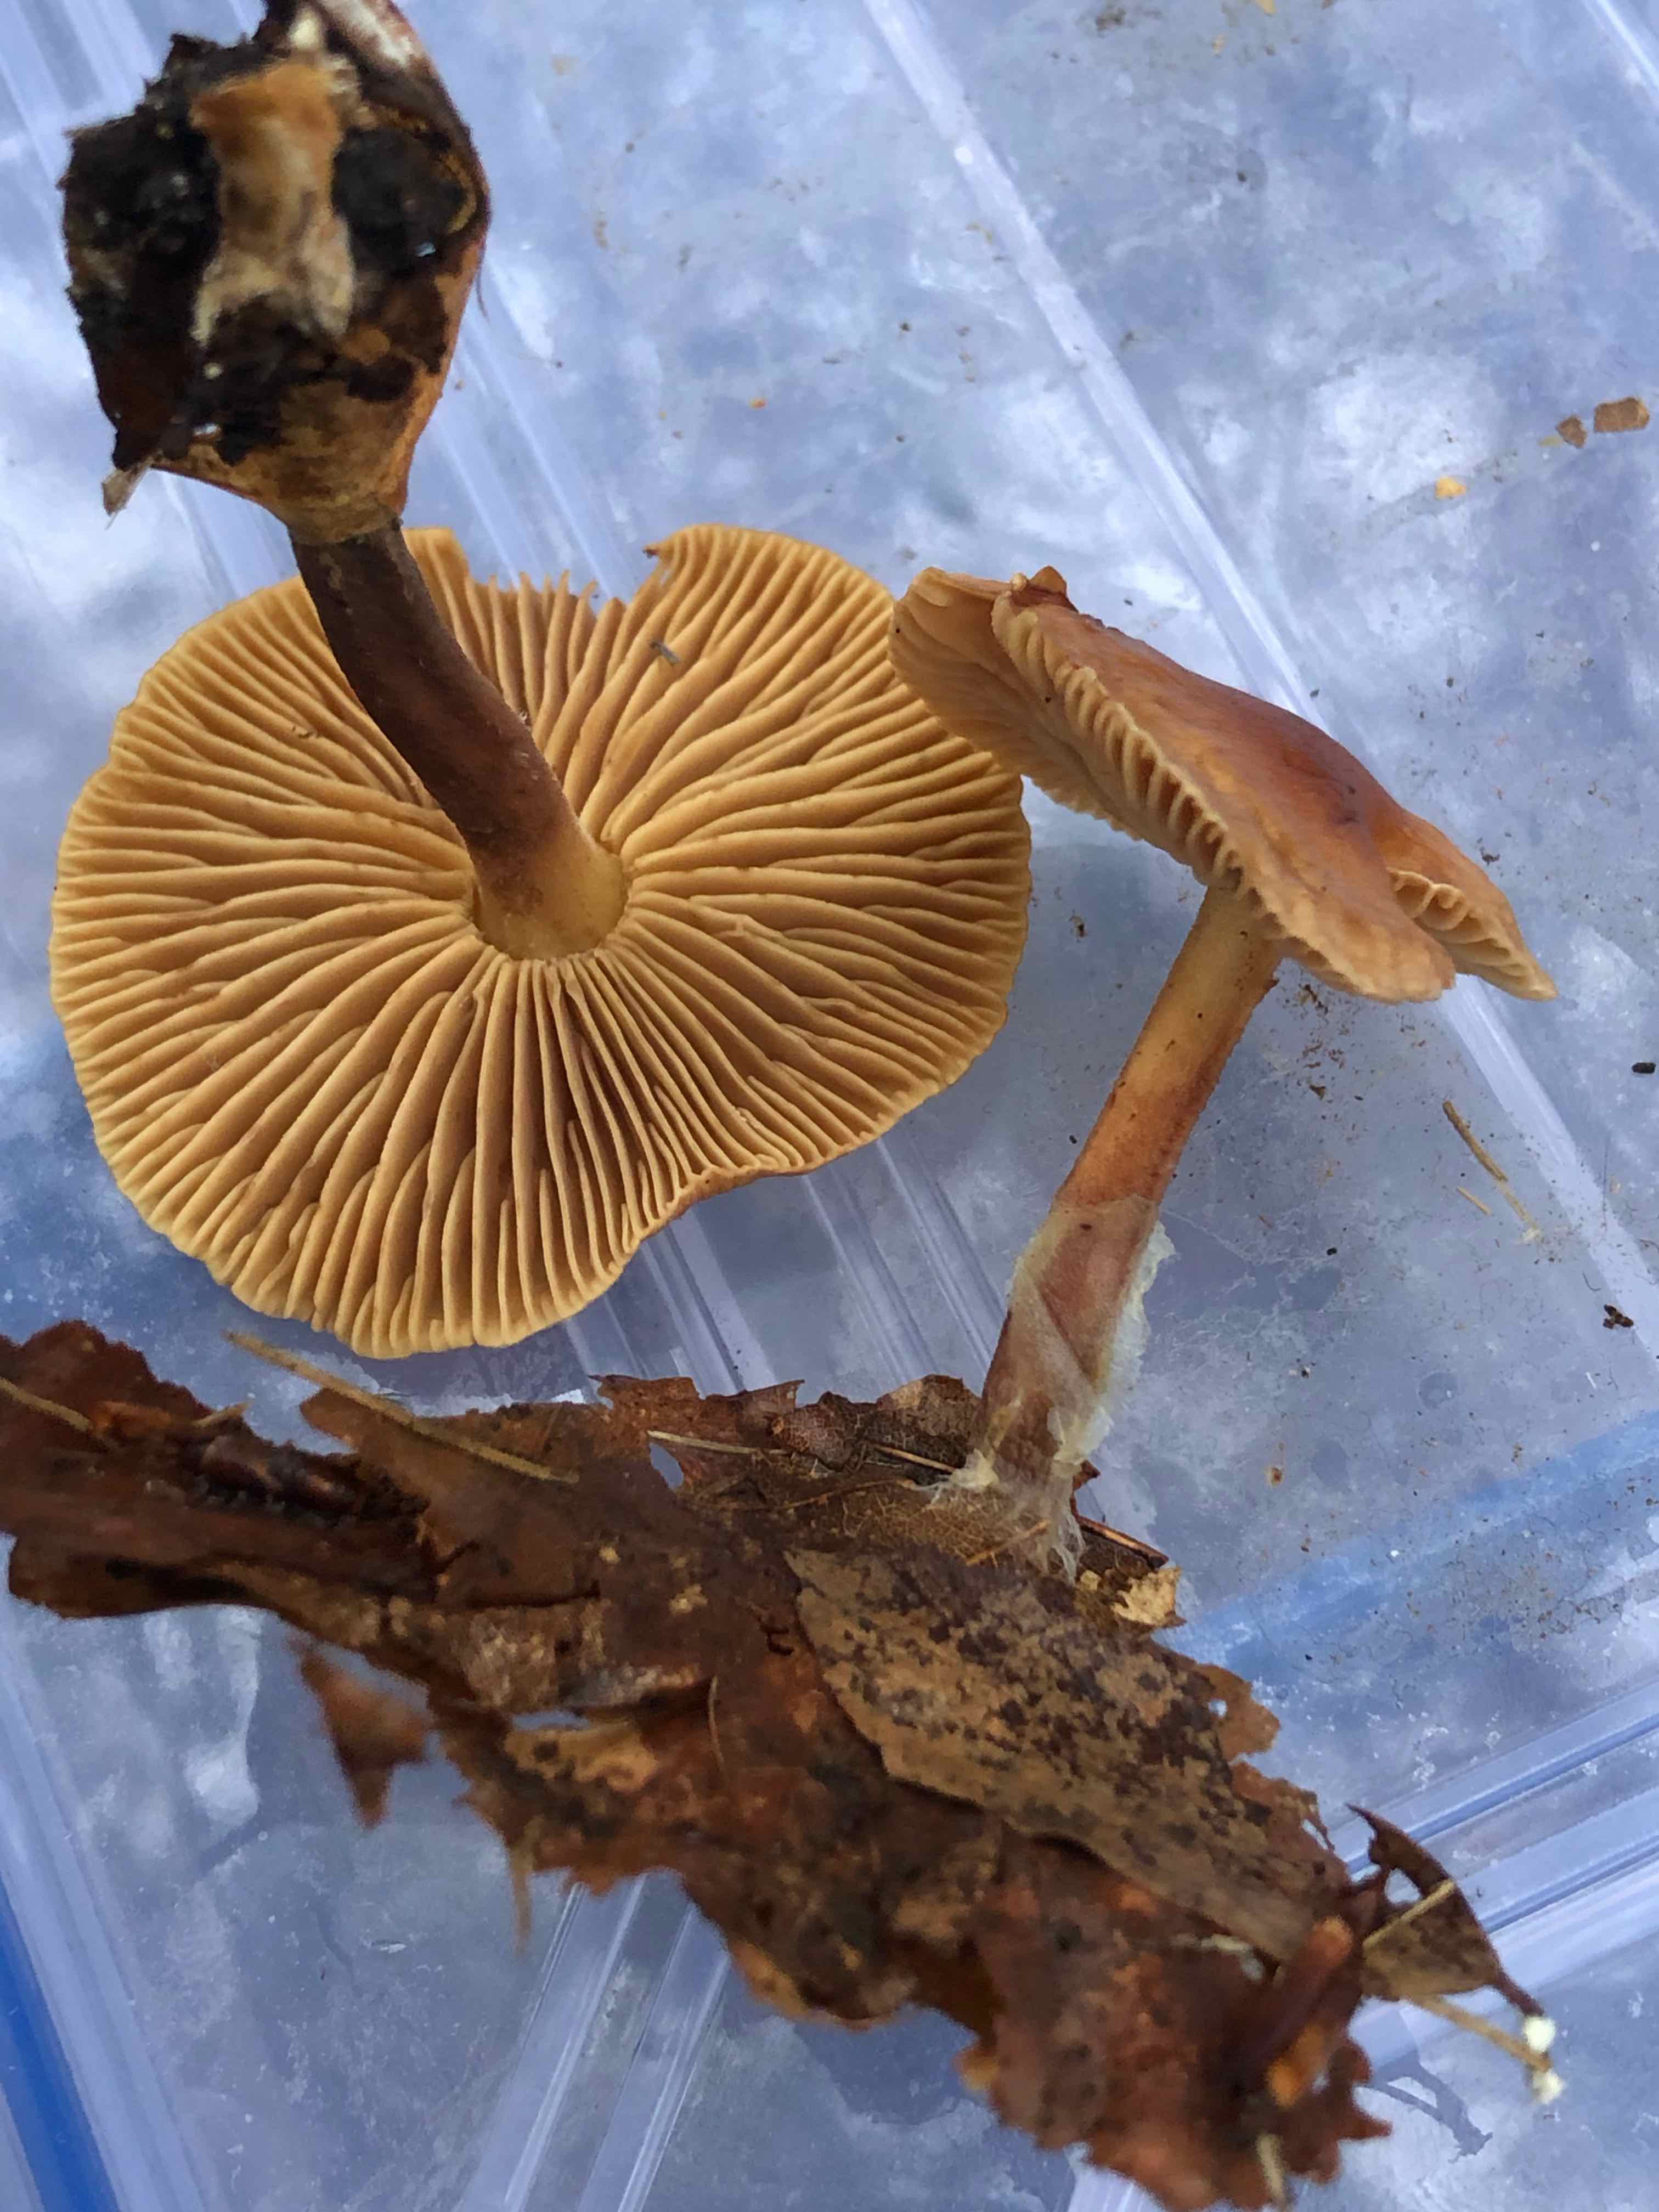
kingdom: Fungi
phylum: Basidiomycota
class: Agaricomycetes
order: Agaricales
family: Omphalotaceae
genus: Collybiopsis
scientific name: Collybiopsis peronata
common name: bestøvlet fladhat
